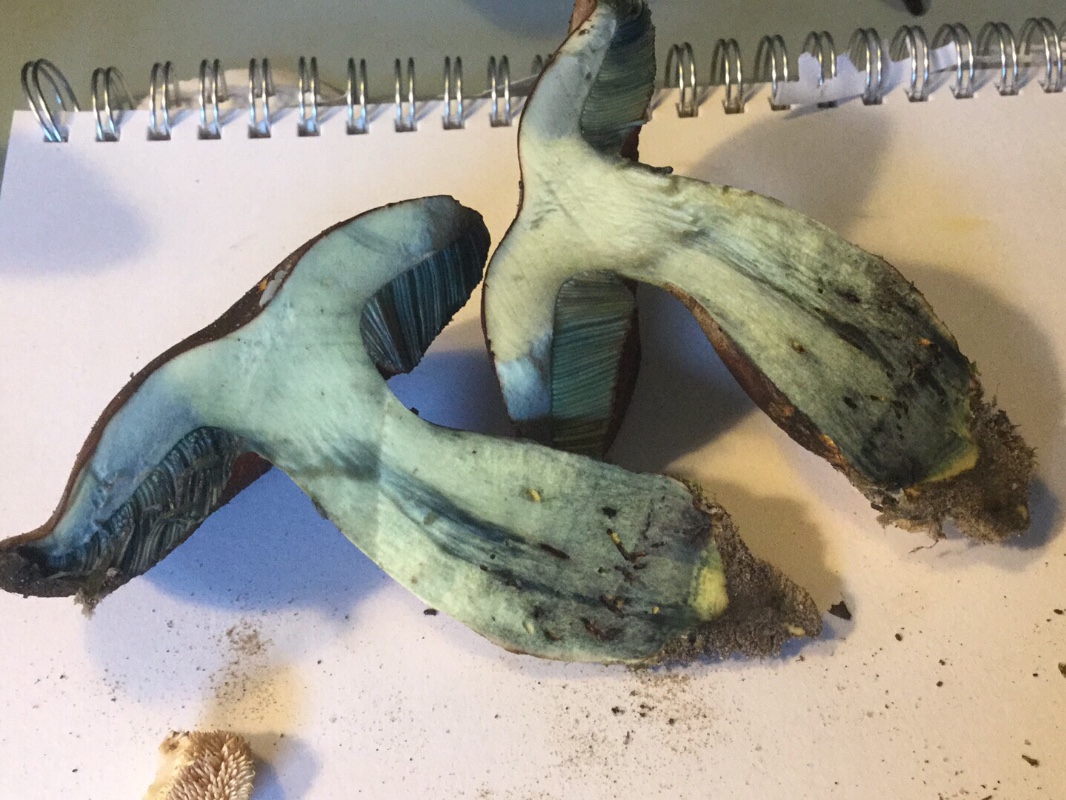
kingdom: Fungi
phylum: Basidiomycota
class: Agaricomycetes
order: Boletales
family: Boletaceae
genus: Neoboletus
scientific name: Neoboletus erythropus
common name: punktstokket indigorørhat
